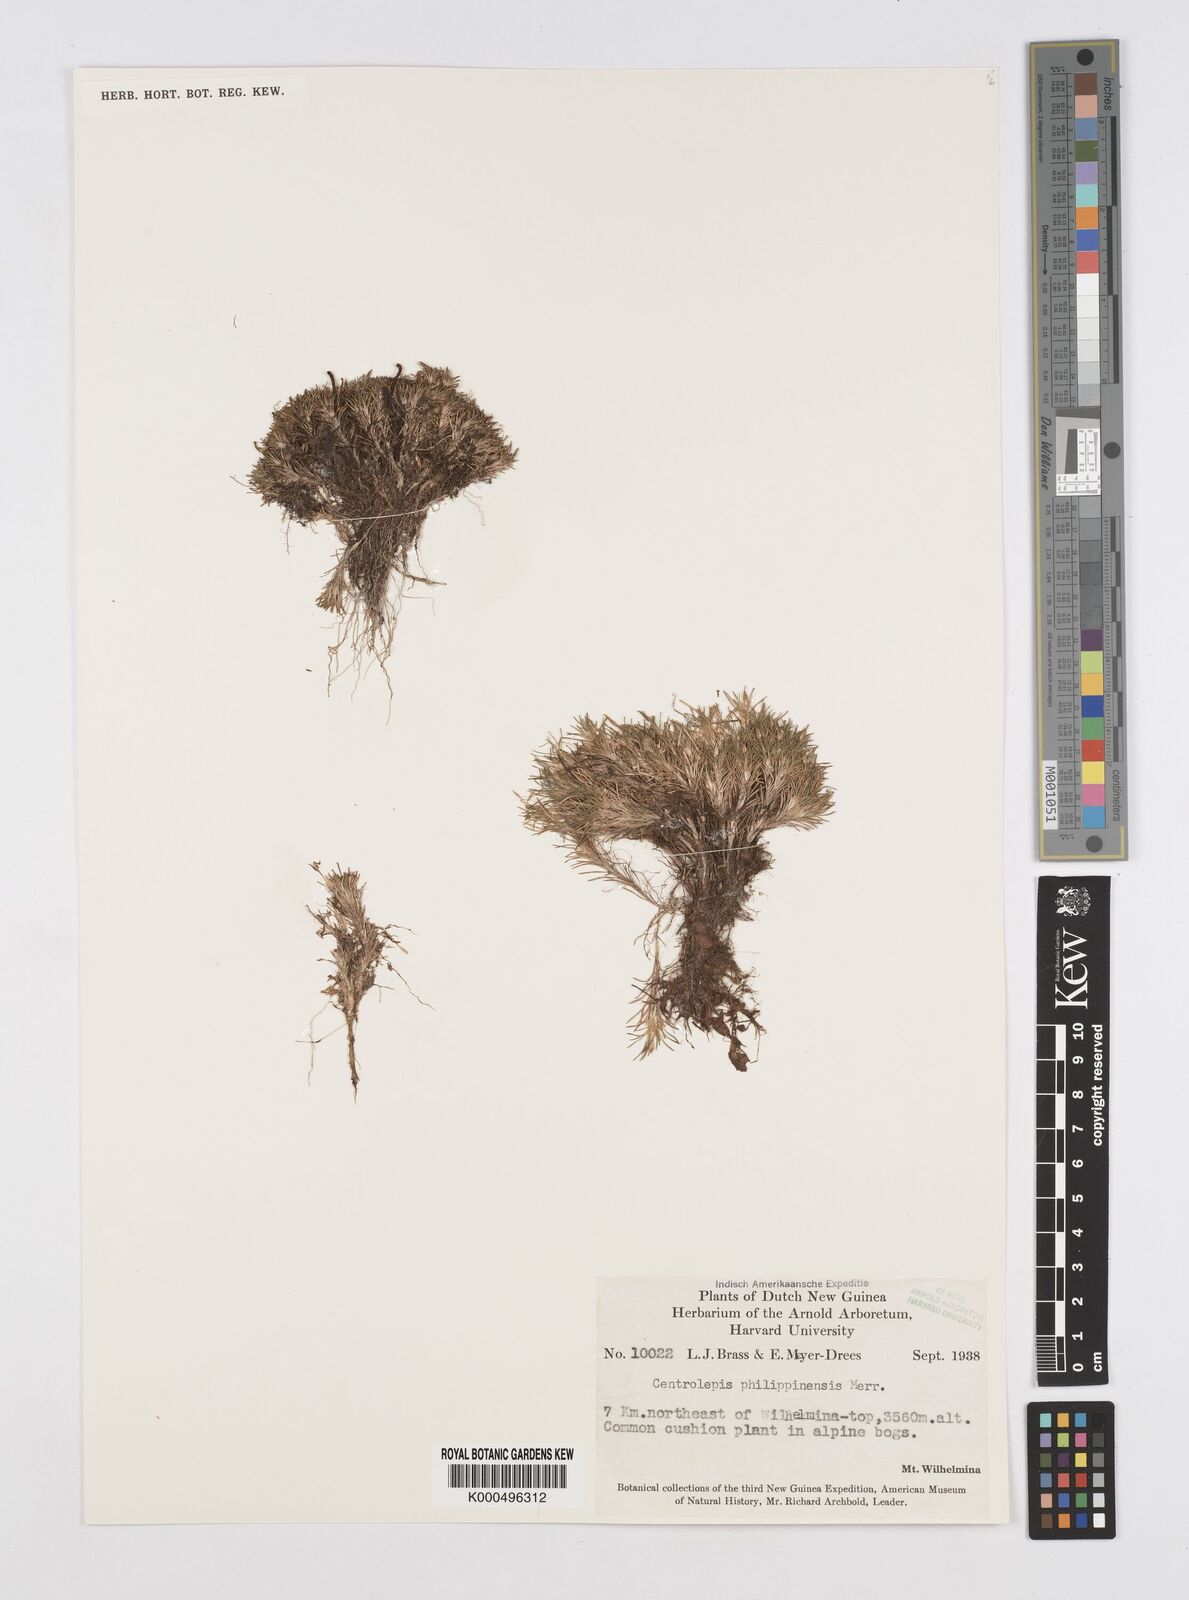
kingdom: Plantae
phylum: Tracheophyta
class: Liliopsida
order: Poales
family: Restionaceae
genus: Centrolepis
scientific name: Centrolepis philippinensis
